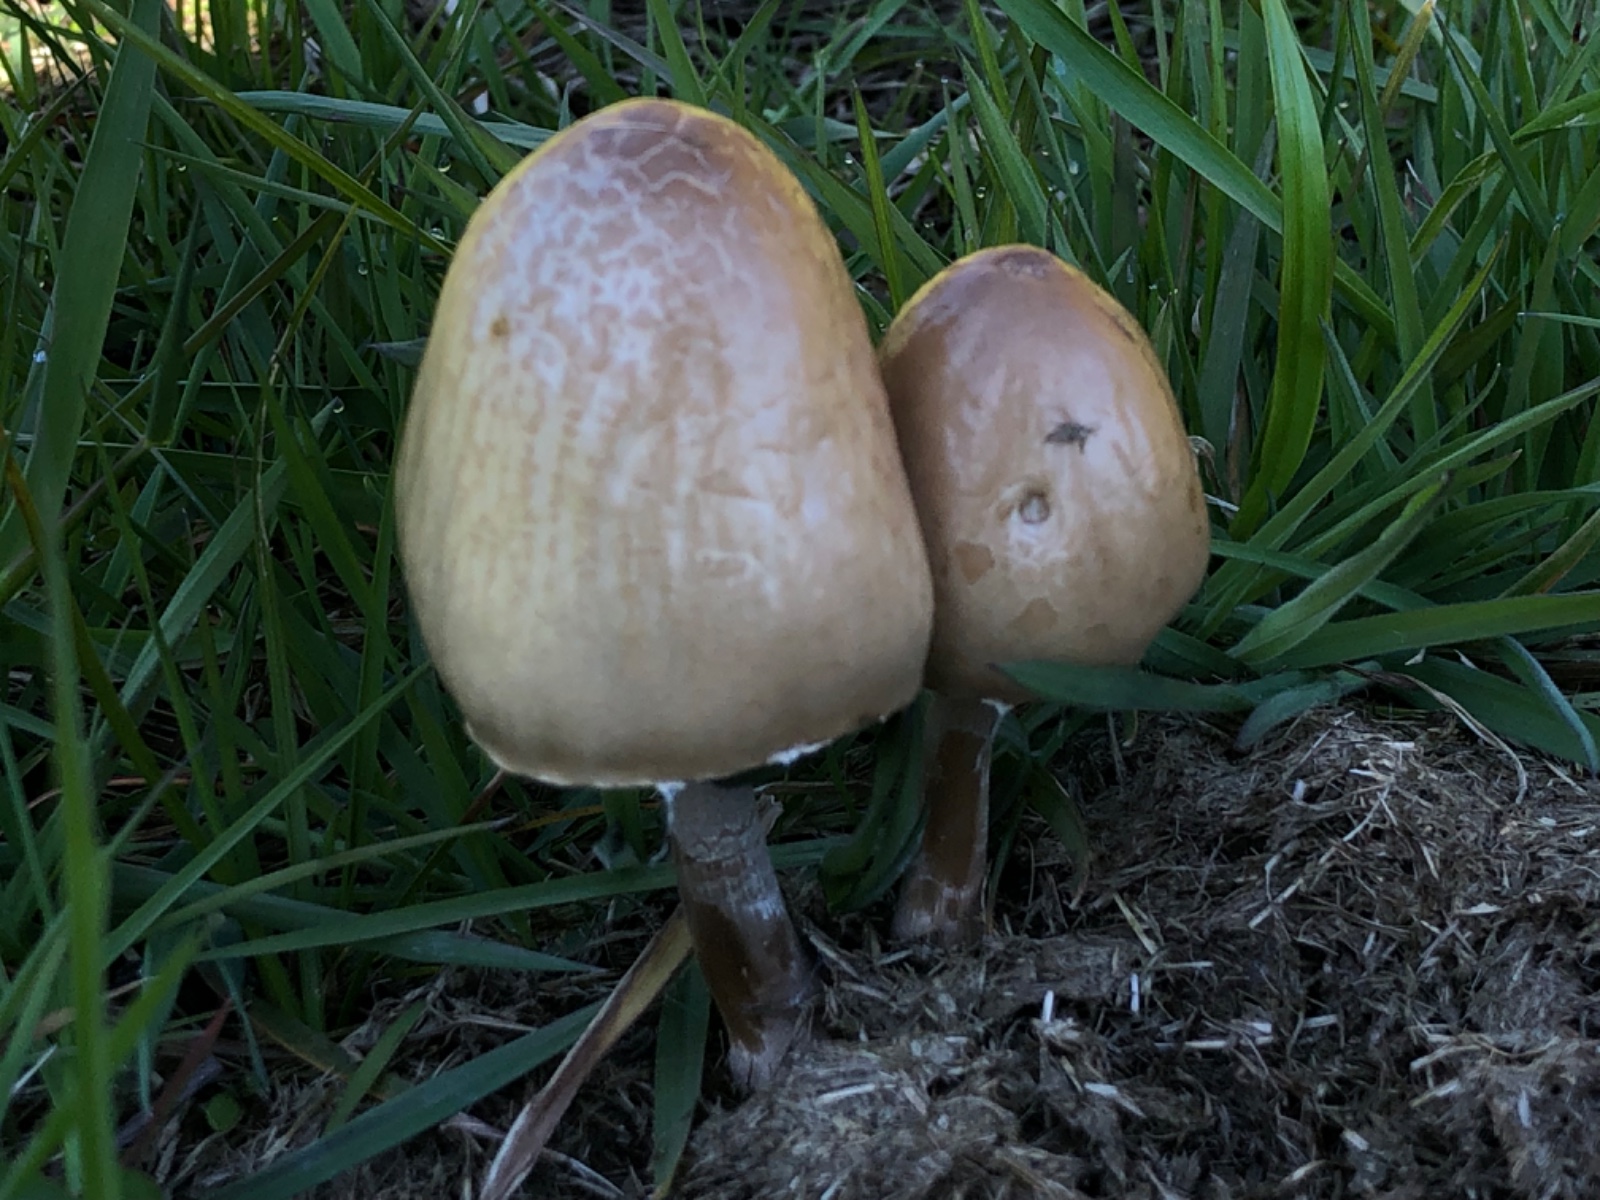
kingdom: Fungi
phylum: Basidiomycota
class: Agaricomycetes
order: Agaricales
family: Bolbitiaceae
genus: Panaeolus
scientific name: Panaeolus semiovatus
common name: ring-glanshat
